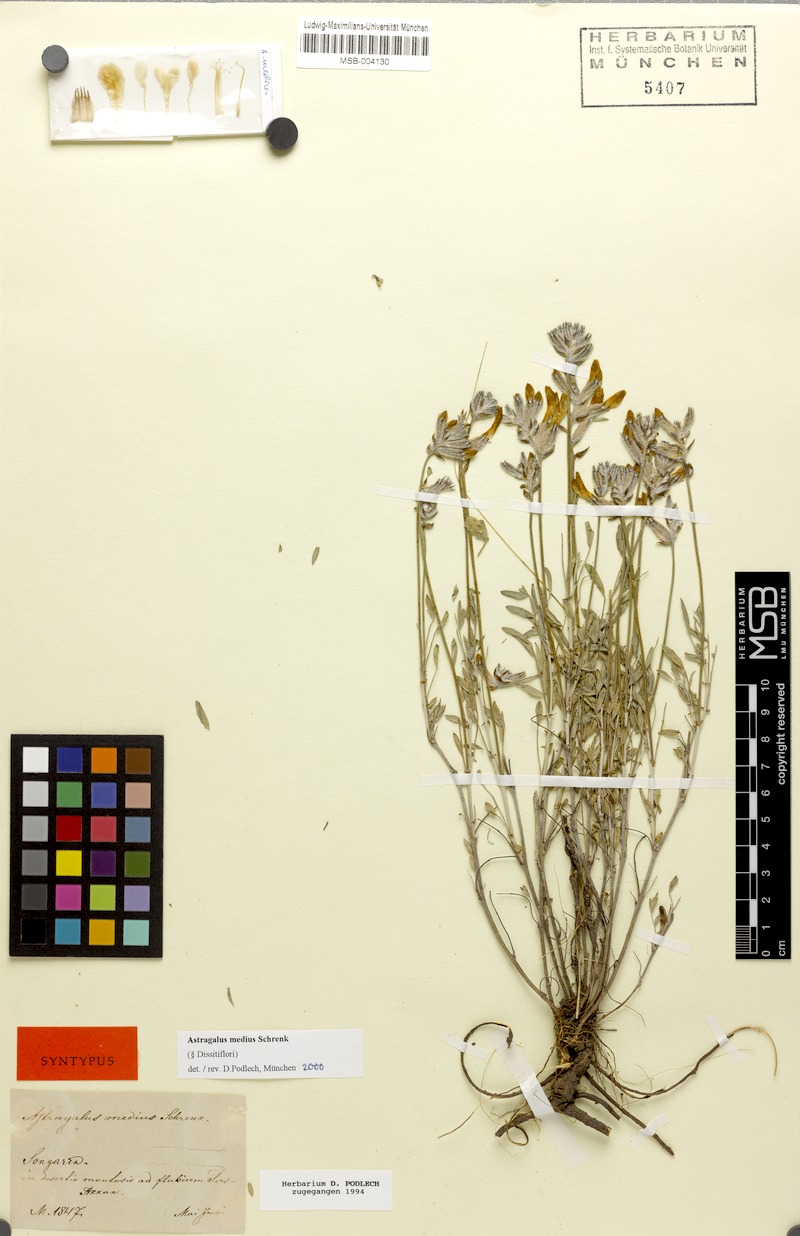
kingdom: Plantae
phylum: Tracheophyta
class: Magnoliopsida
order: Fabales
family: Fabaceae
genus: Astragalus
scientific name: Astragalus medius
